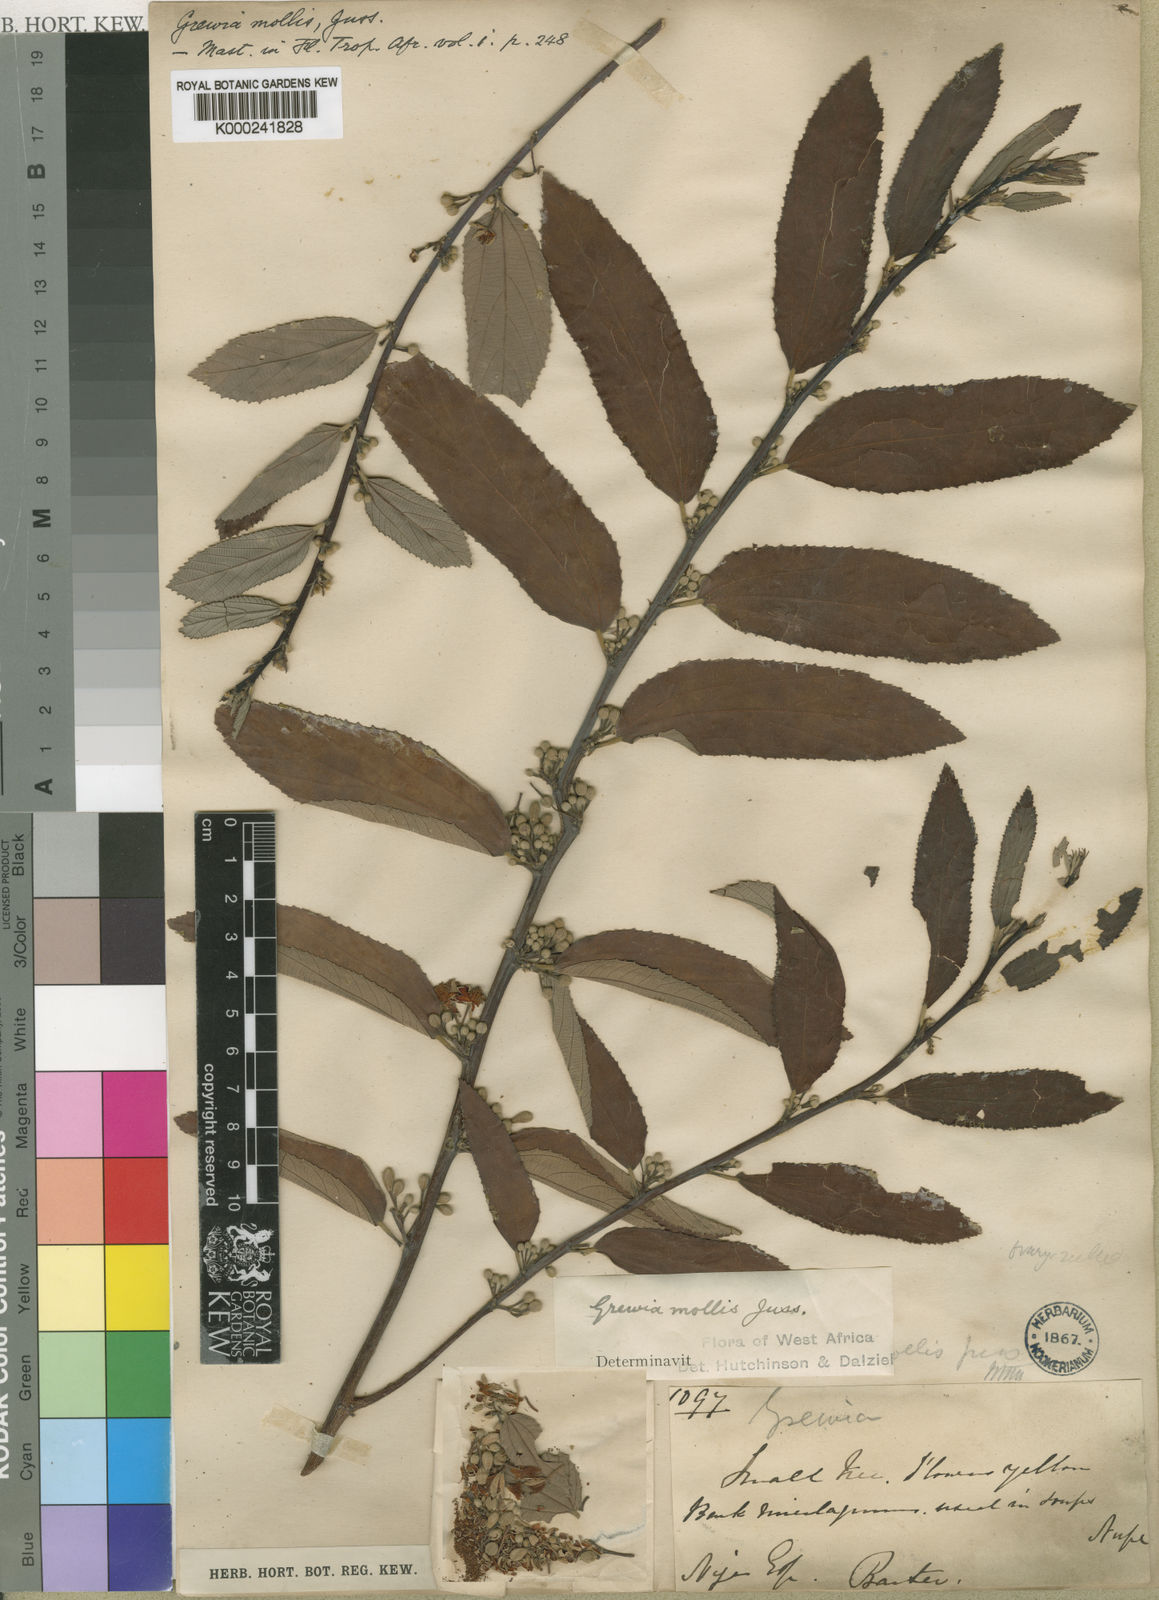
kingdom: Plantae
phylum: Tracheophyta
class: Magnoliopsida
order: Malvales
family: Malvaceae
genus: Grewia
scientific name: Grewia mollis
